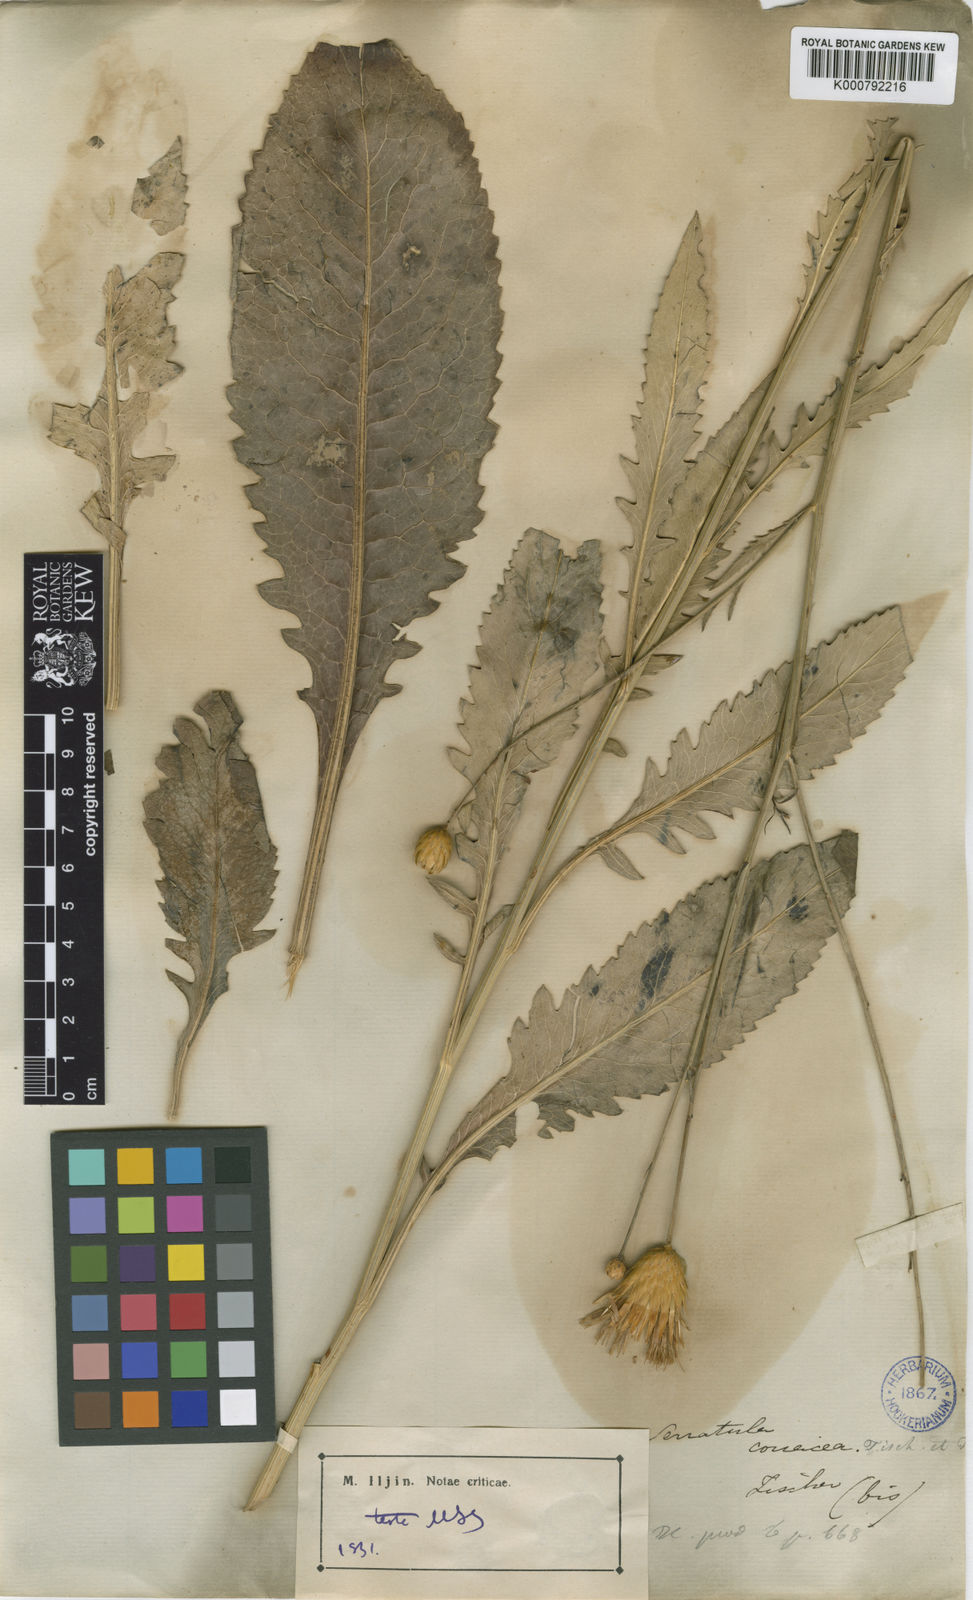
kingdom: Plantae
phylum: Tracheophyta
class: Magnoliopsida
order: Asterales
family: Asteraceae
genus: Serratula
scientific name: Serratula
